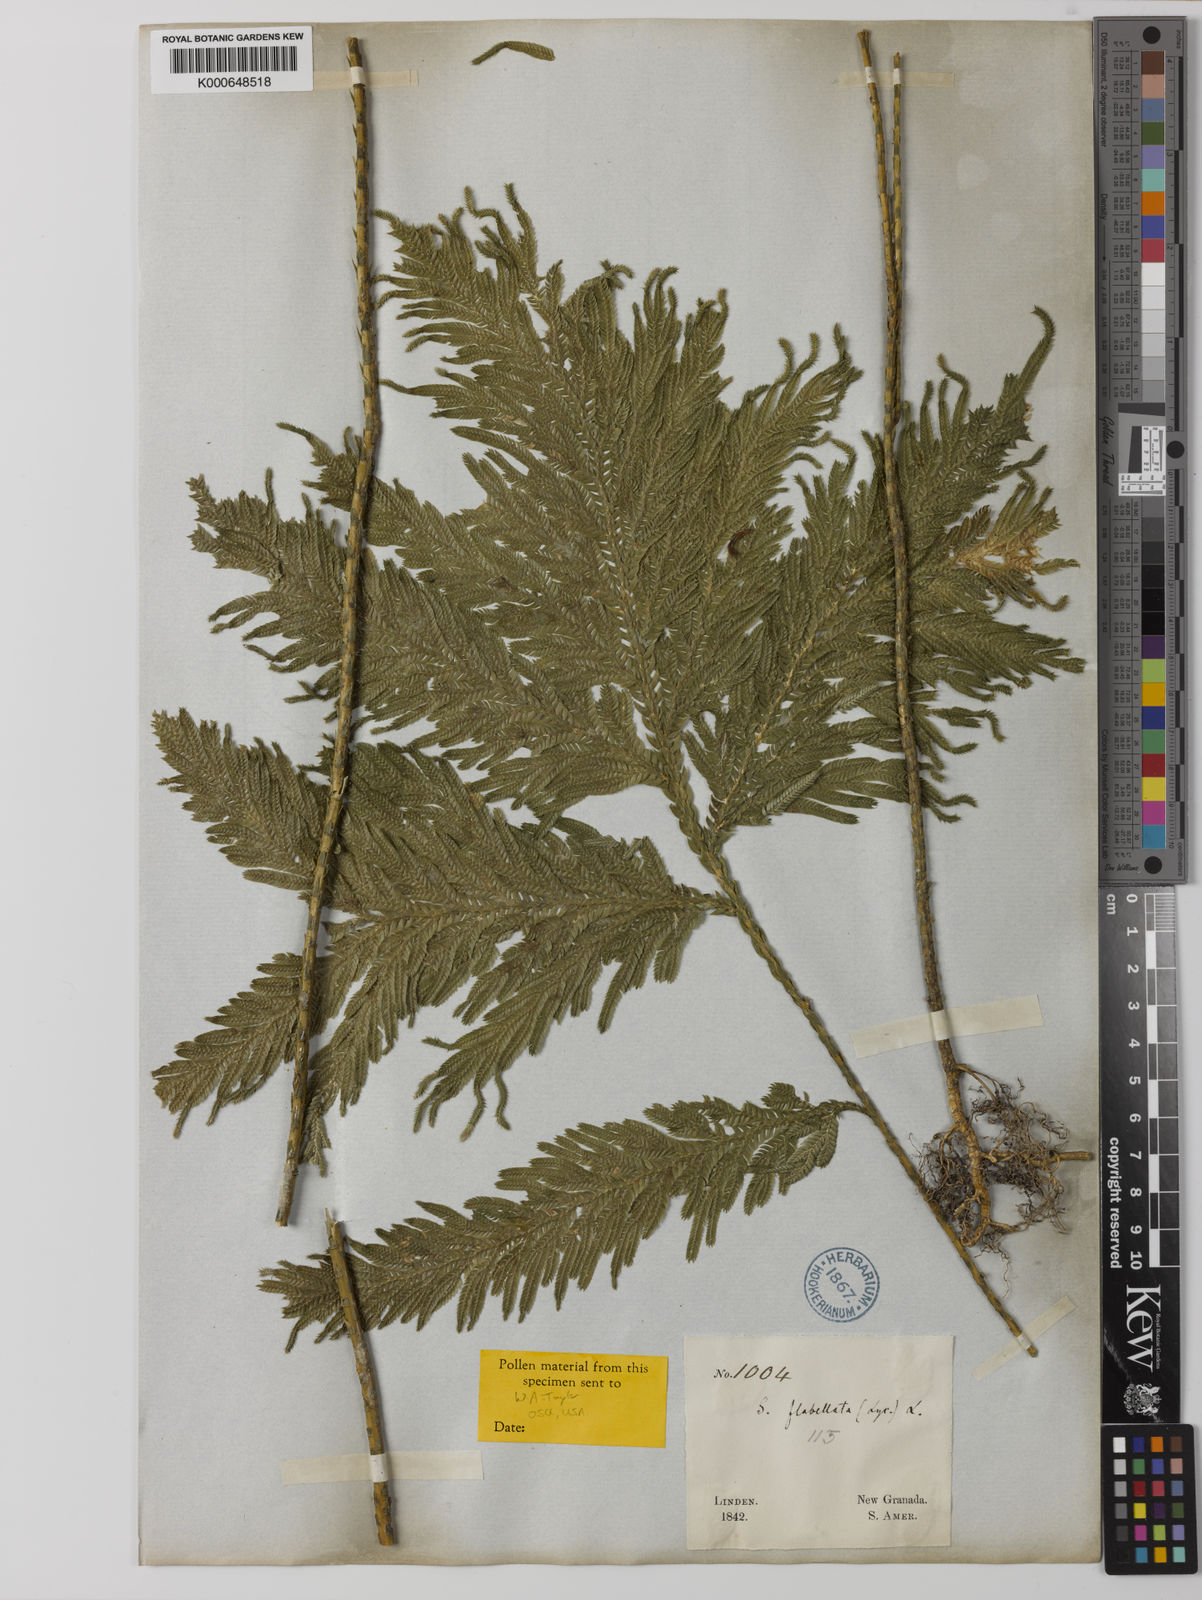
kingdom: Plantae
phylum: Tracheophyta
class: Lycopodiopsida
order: Selaginellales
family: Selaginellaceae
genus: Selaginella
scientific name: Selaginella flabellata
